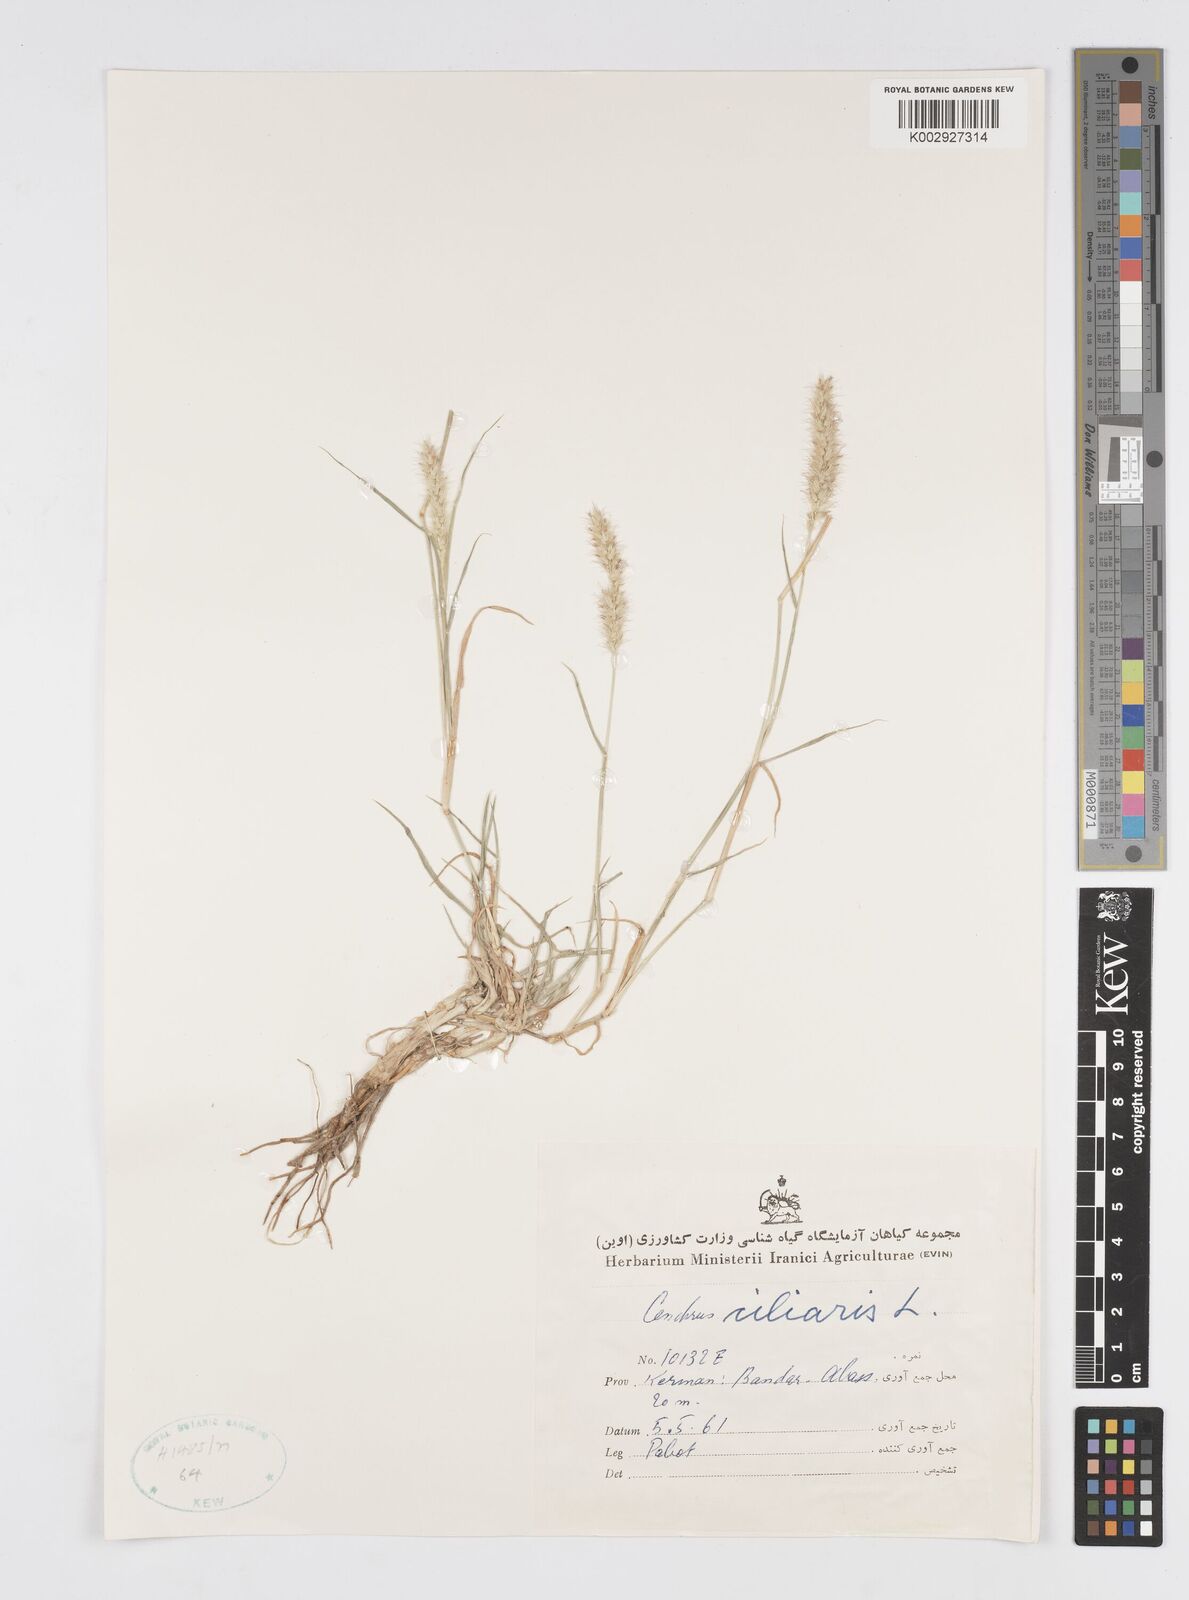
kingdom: Plantae
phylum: Tracheophyta
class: Liliopsida
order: Poales
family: Poaceae
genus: Cenchrus
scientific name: Cenchrus ciliaris
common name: Buffelgrass
